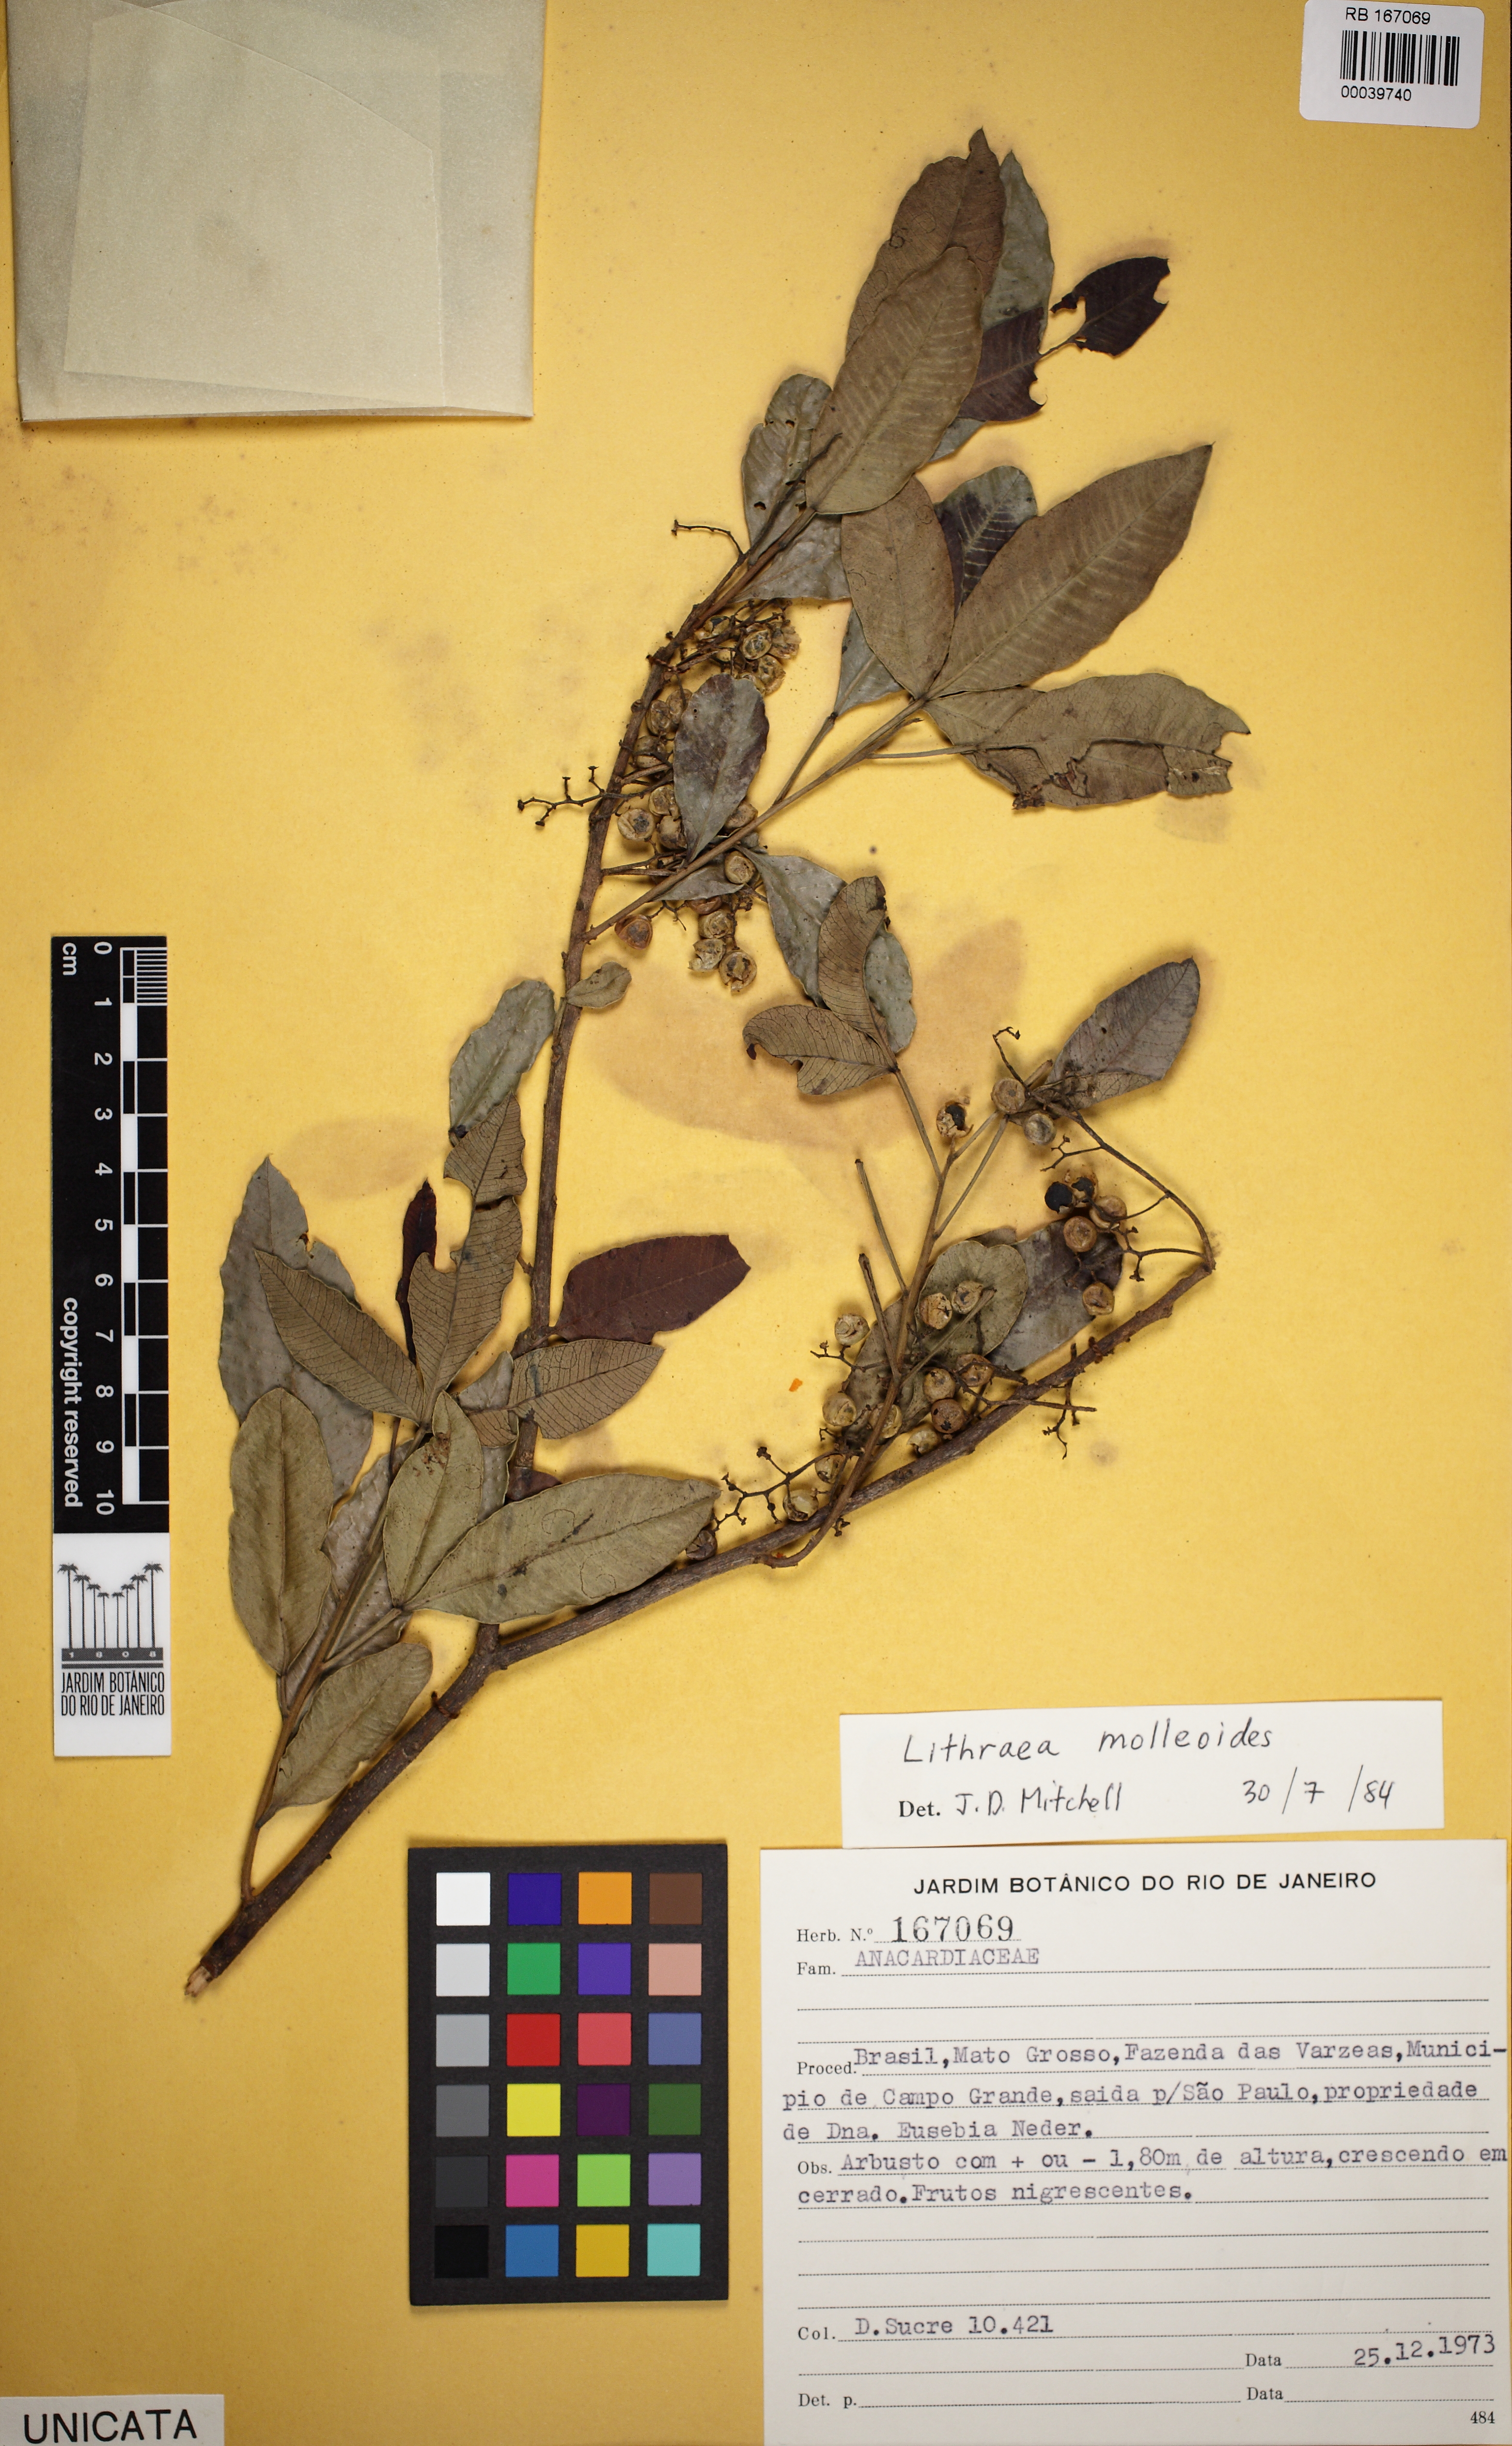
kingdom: Plantae
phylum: Tracheophyta
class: Magnoliopsida
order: Sapindales
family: Anacardiaceae
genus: Lithraea
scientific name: Lithraea molleoides
